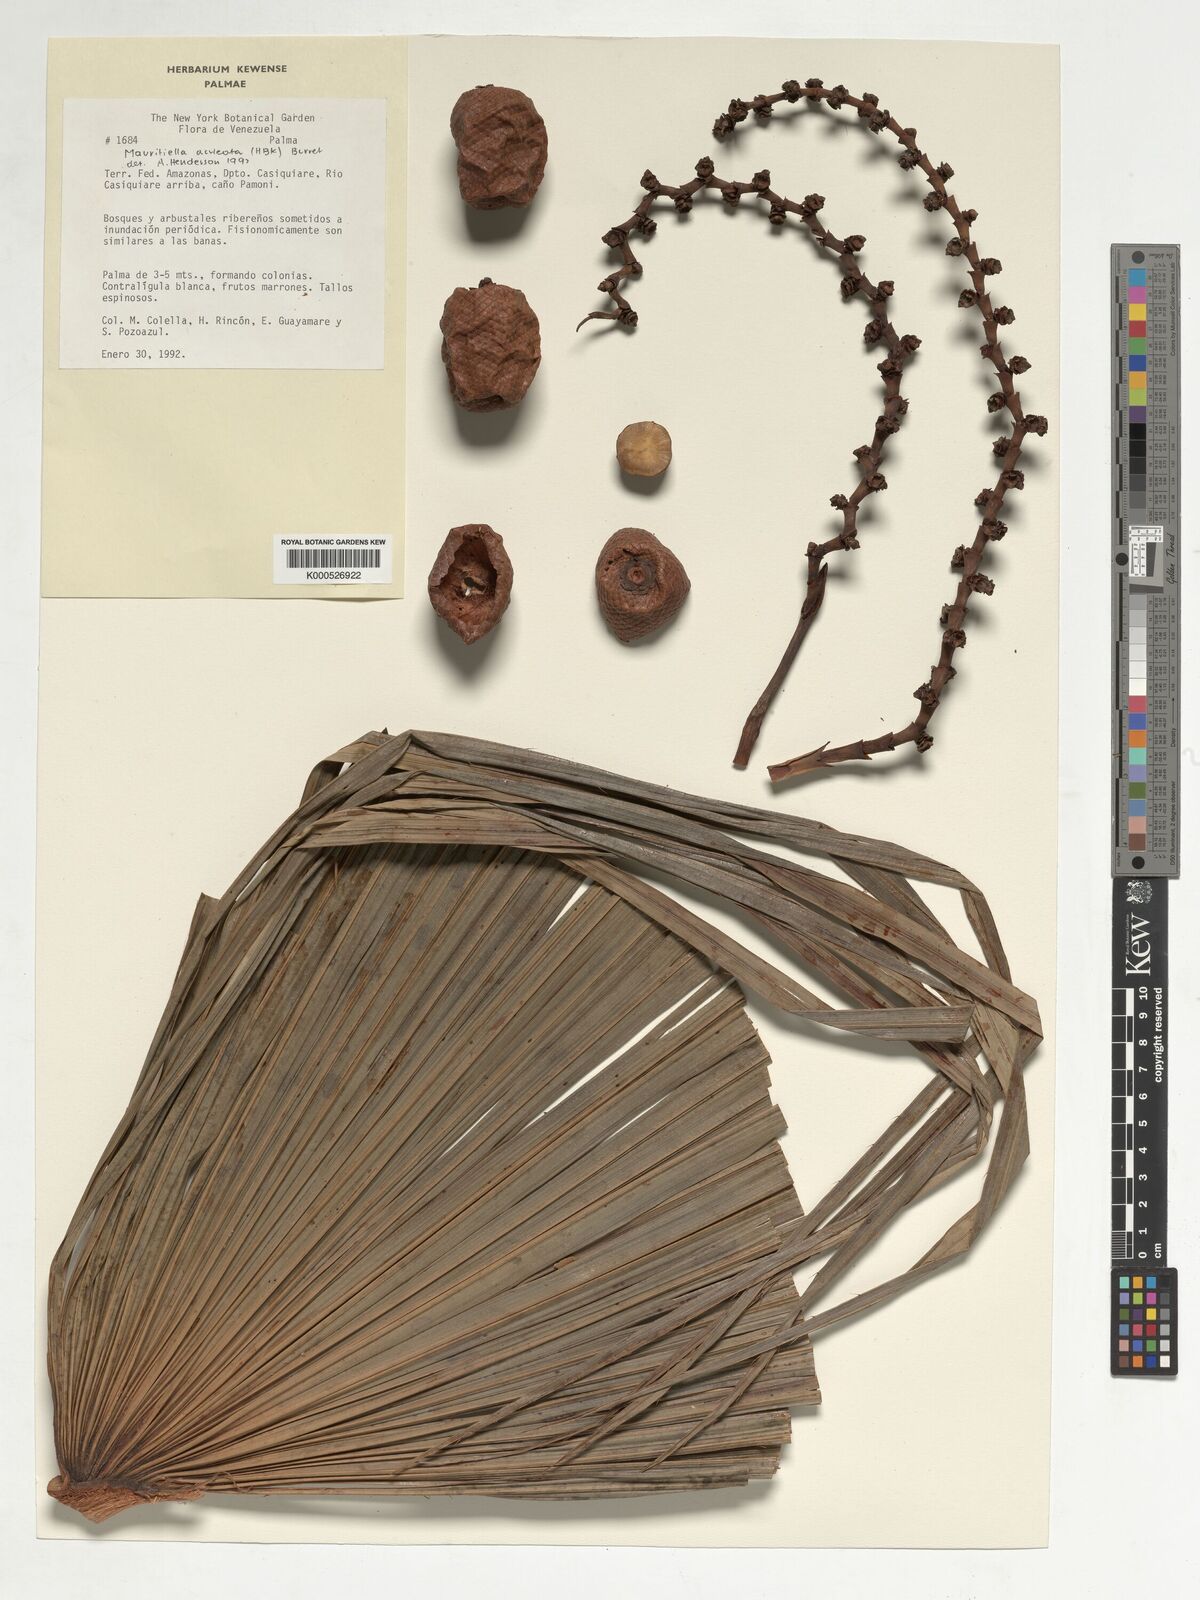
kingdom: Plantae
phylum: Tracheophyta
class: Liliopsida
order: Arecales
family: Arecaceae
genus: Mauritiella
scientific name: Mauritiella aculeata
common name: Buritirana
